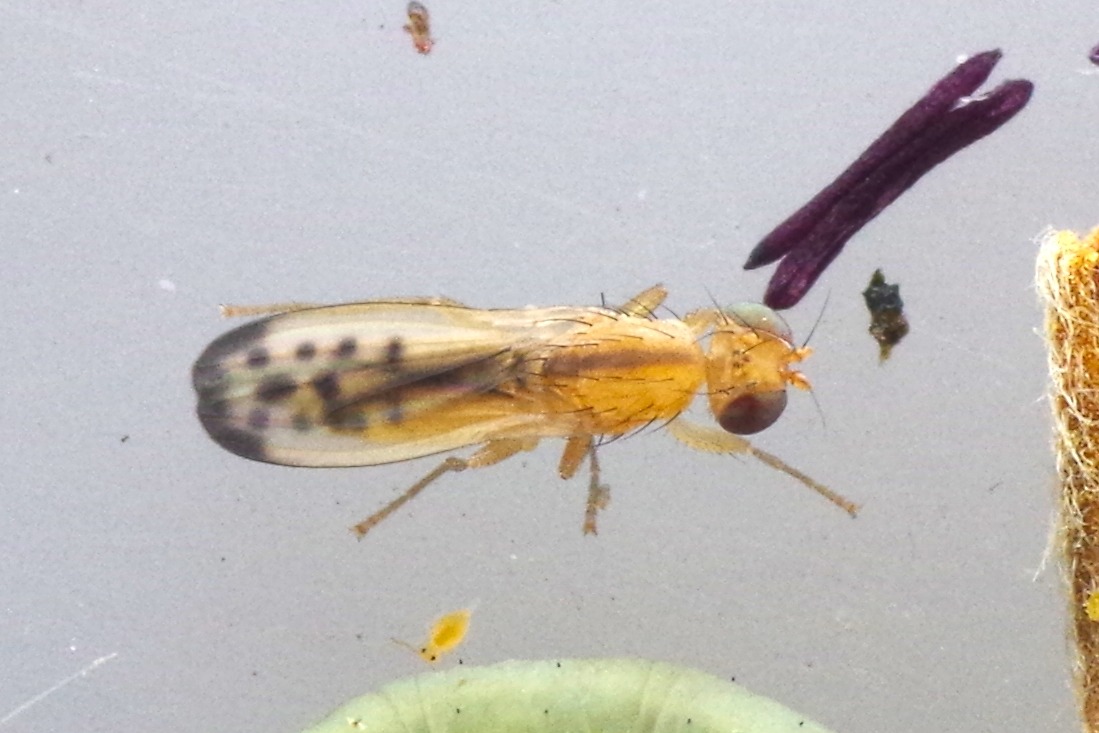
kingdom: Animalia
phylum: Arthropoda
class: Insecta
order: Diptera
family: Opomyzidae
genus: Opomyza
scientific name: Opomyza lineatopunctata
